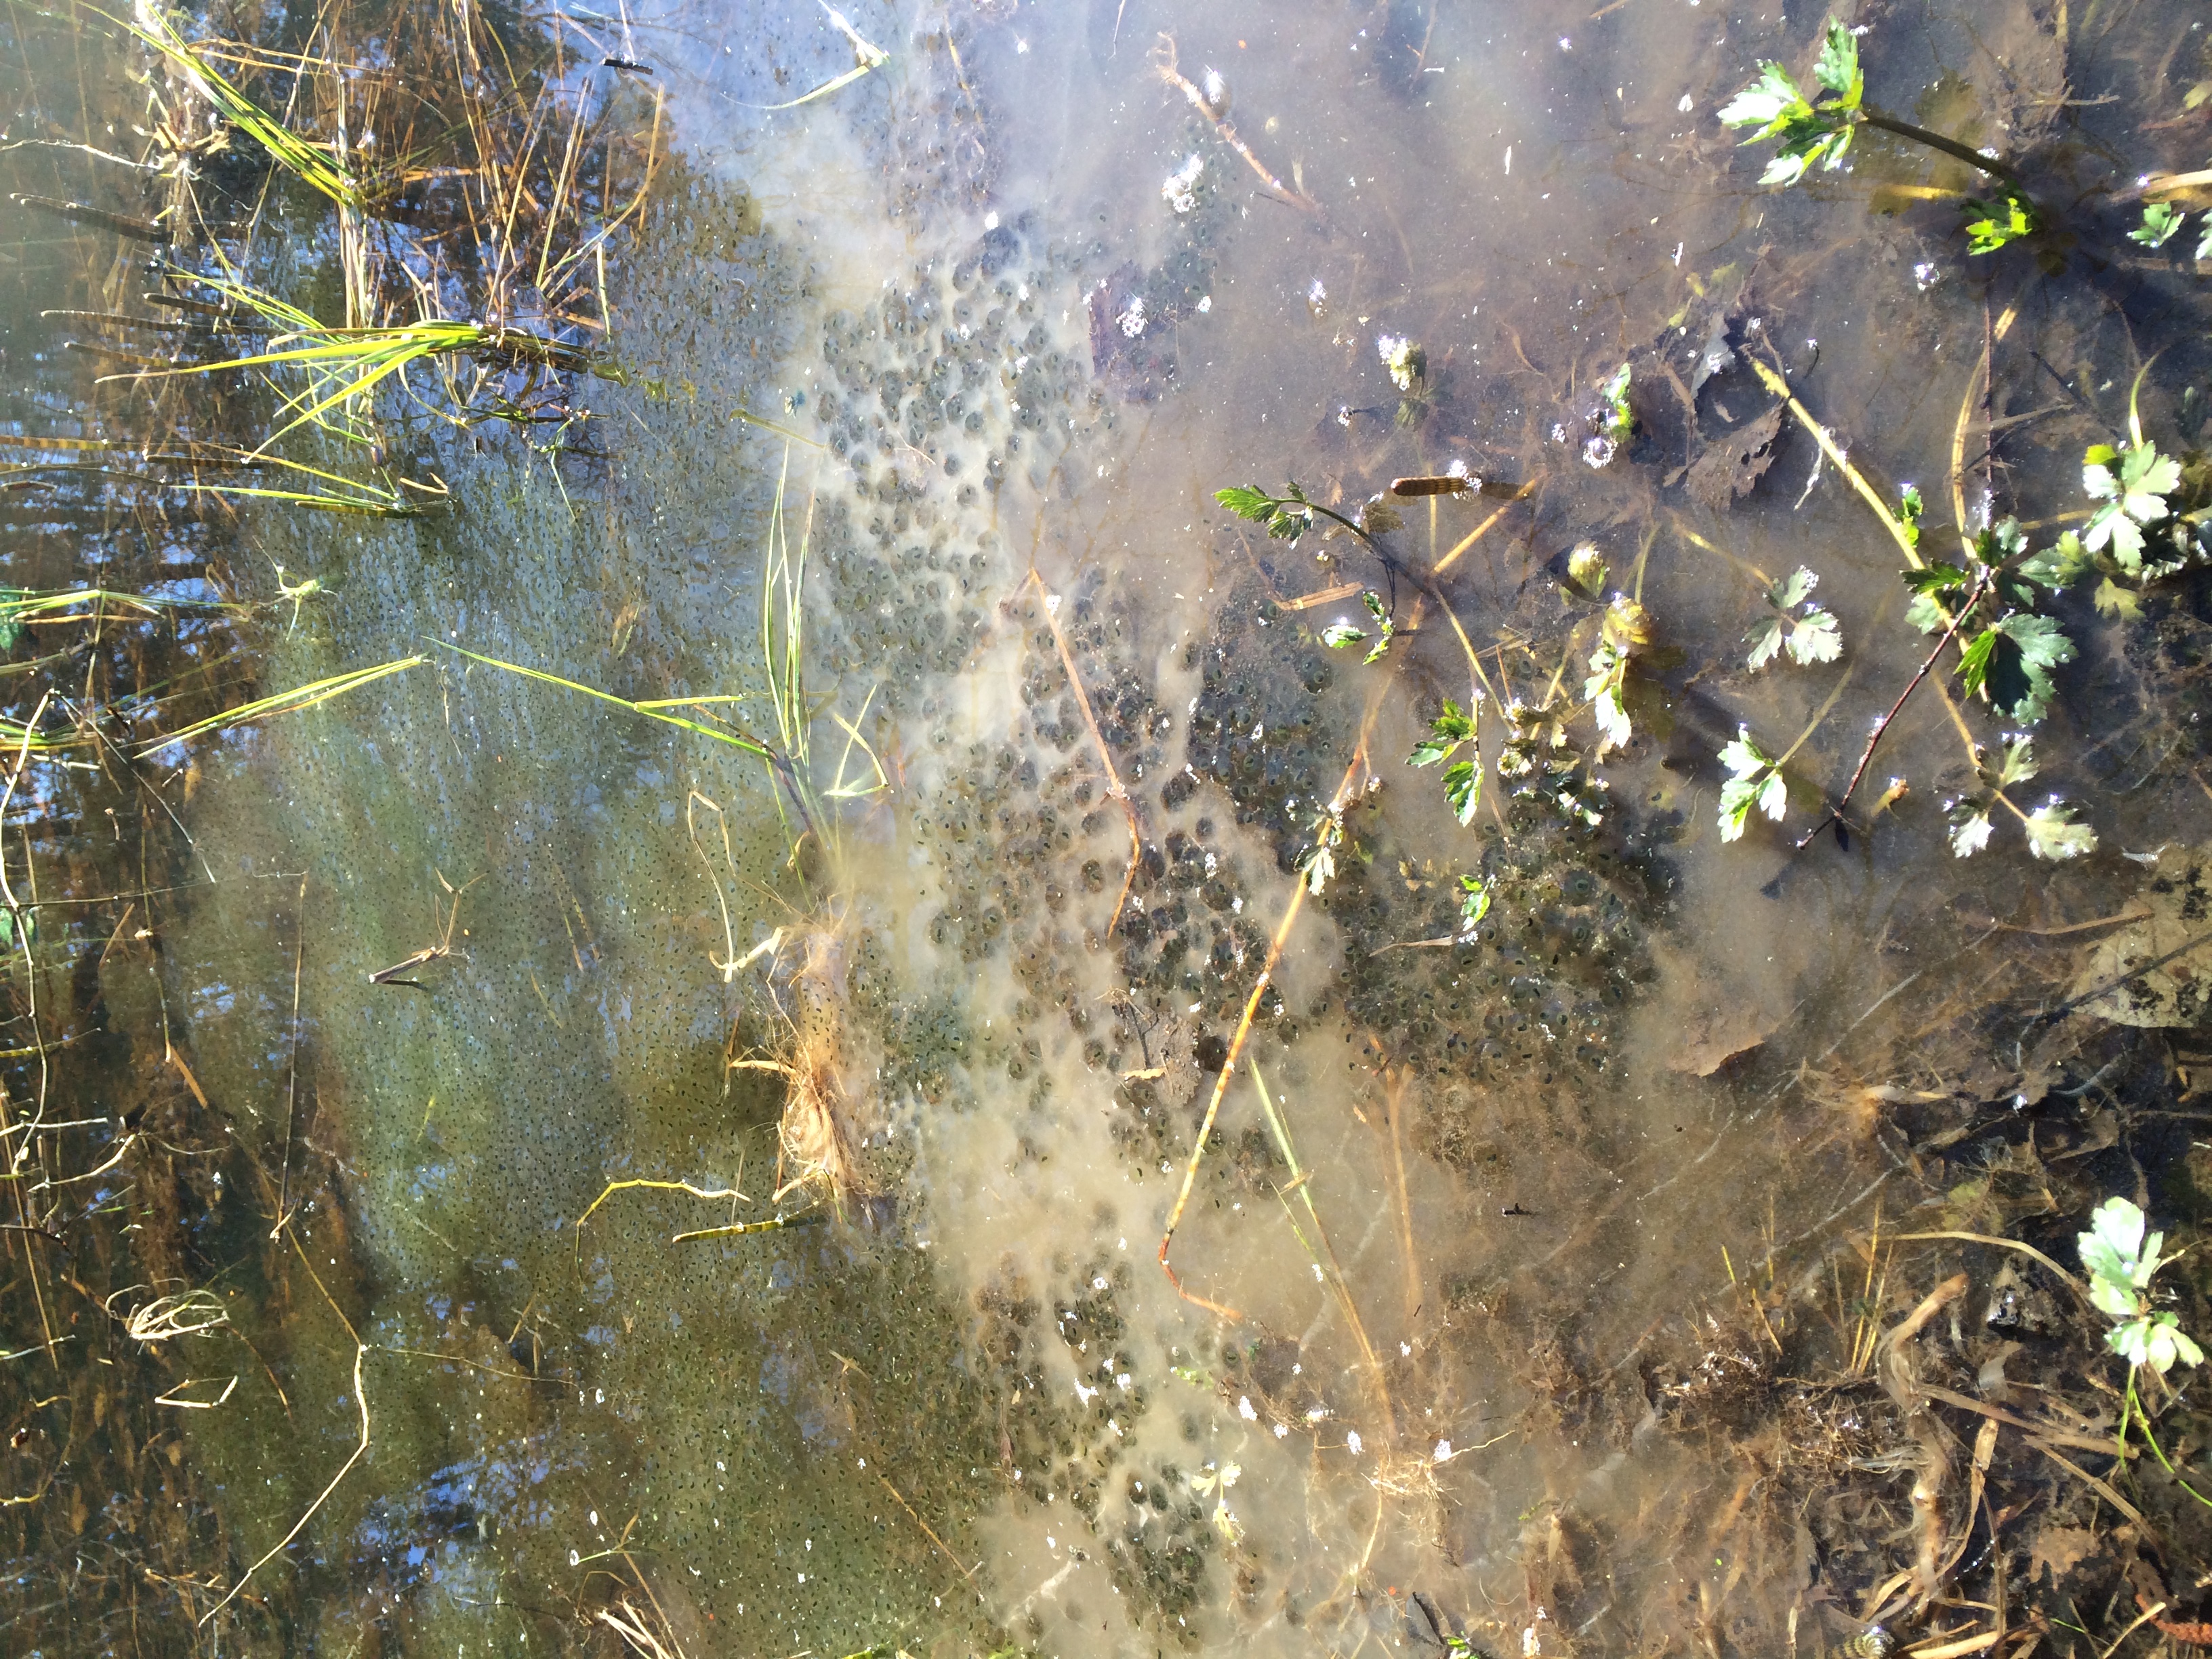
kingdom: Animalia
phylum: Chordata
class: Amphibia
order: Anura
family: Ranidae
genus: Rana
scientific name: Rana temporaria
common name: Common frog
